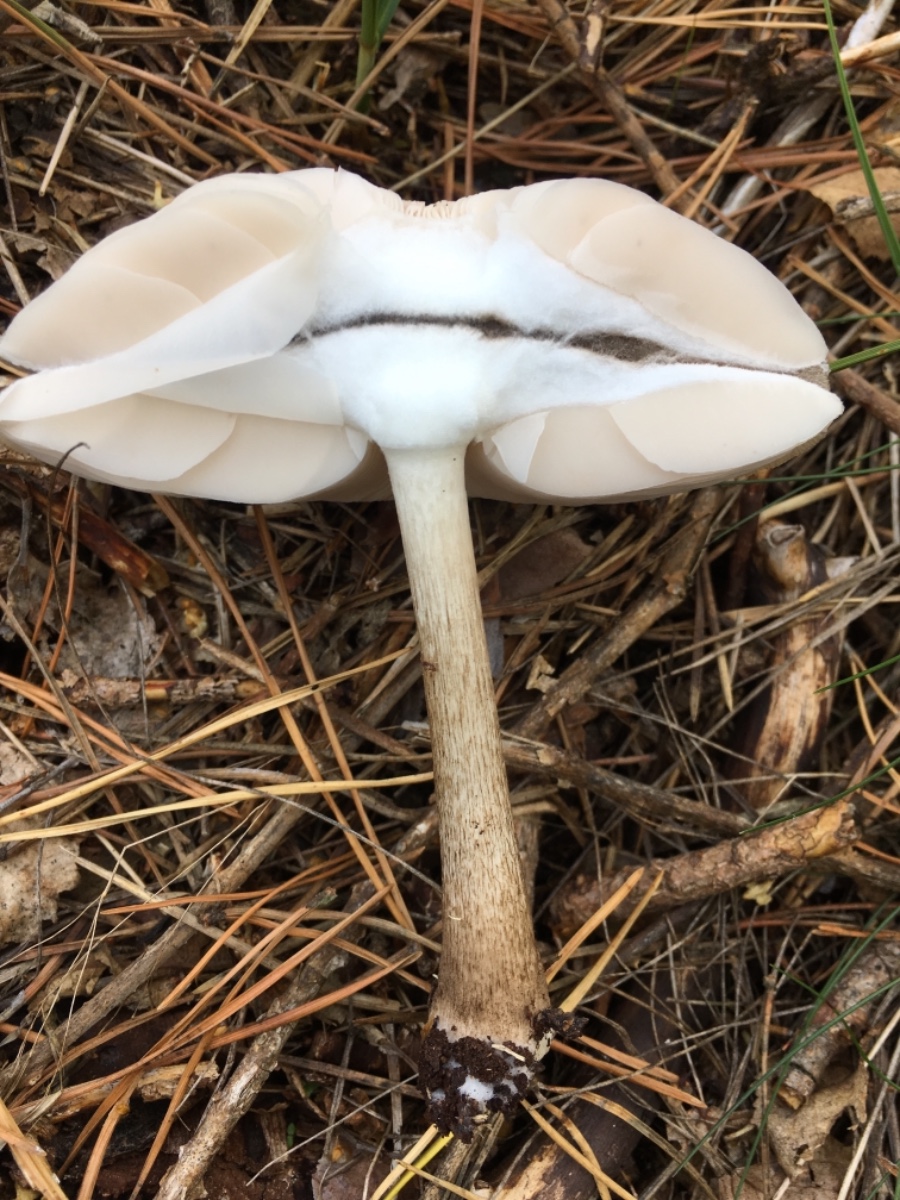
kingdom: Fungi
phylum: Basidiomycota
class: Agaricomycetes
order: Agaricales
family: Pluteaceae
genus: Pluteus
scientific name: Pluteus cervinus
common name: sodfarvet skærmhat
